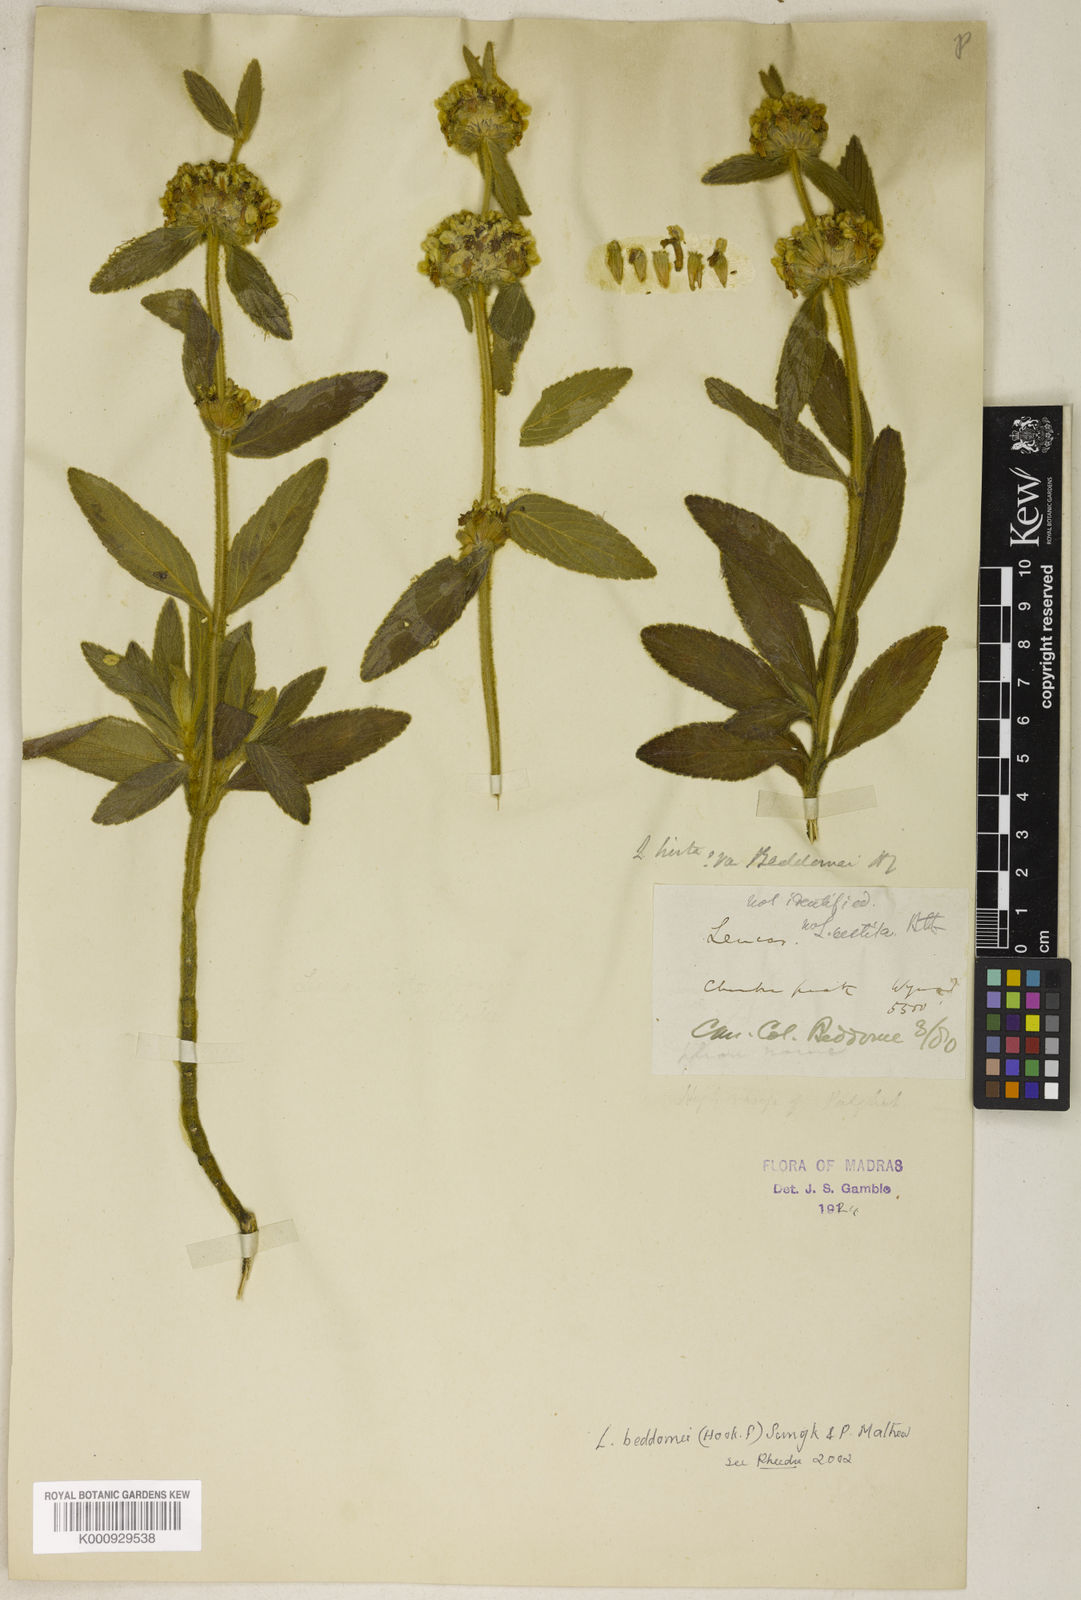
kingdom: Plantae
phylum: Tracheophyta
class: Magnoliopsida
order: Lamiales
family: Lamiaceae
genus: Leucas
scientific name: Leucas hirta
